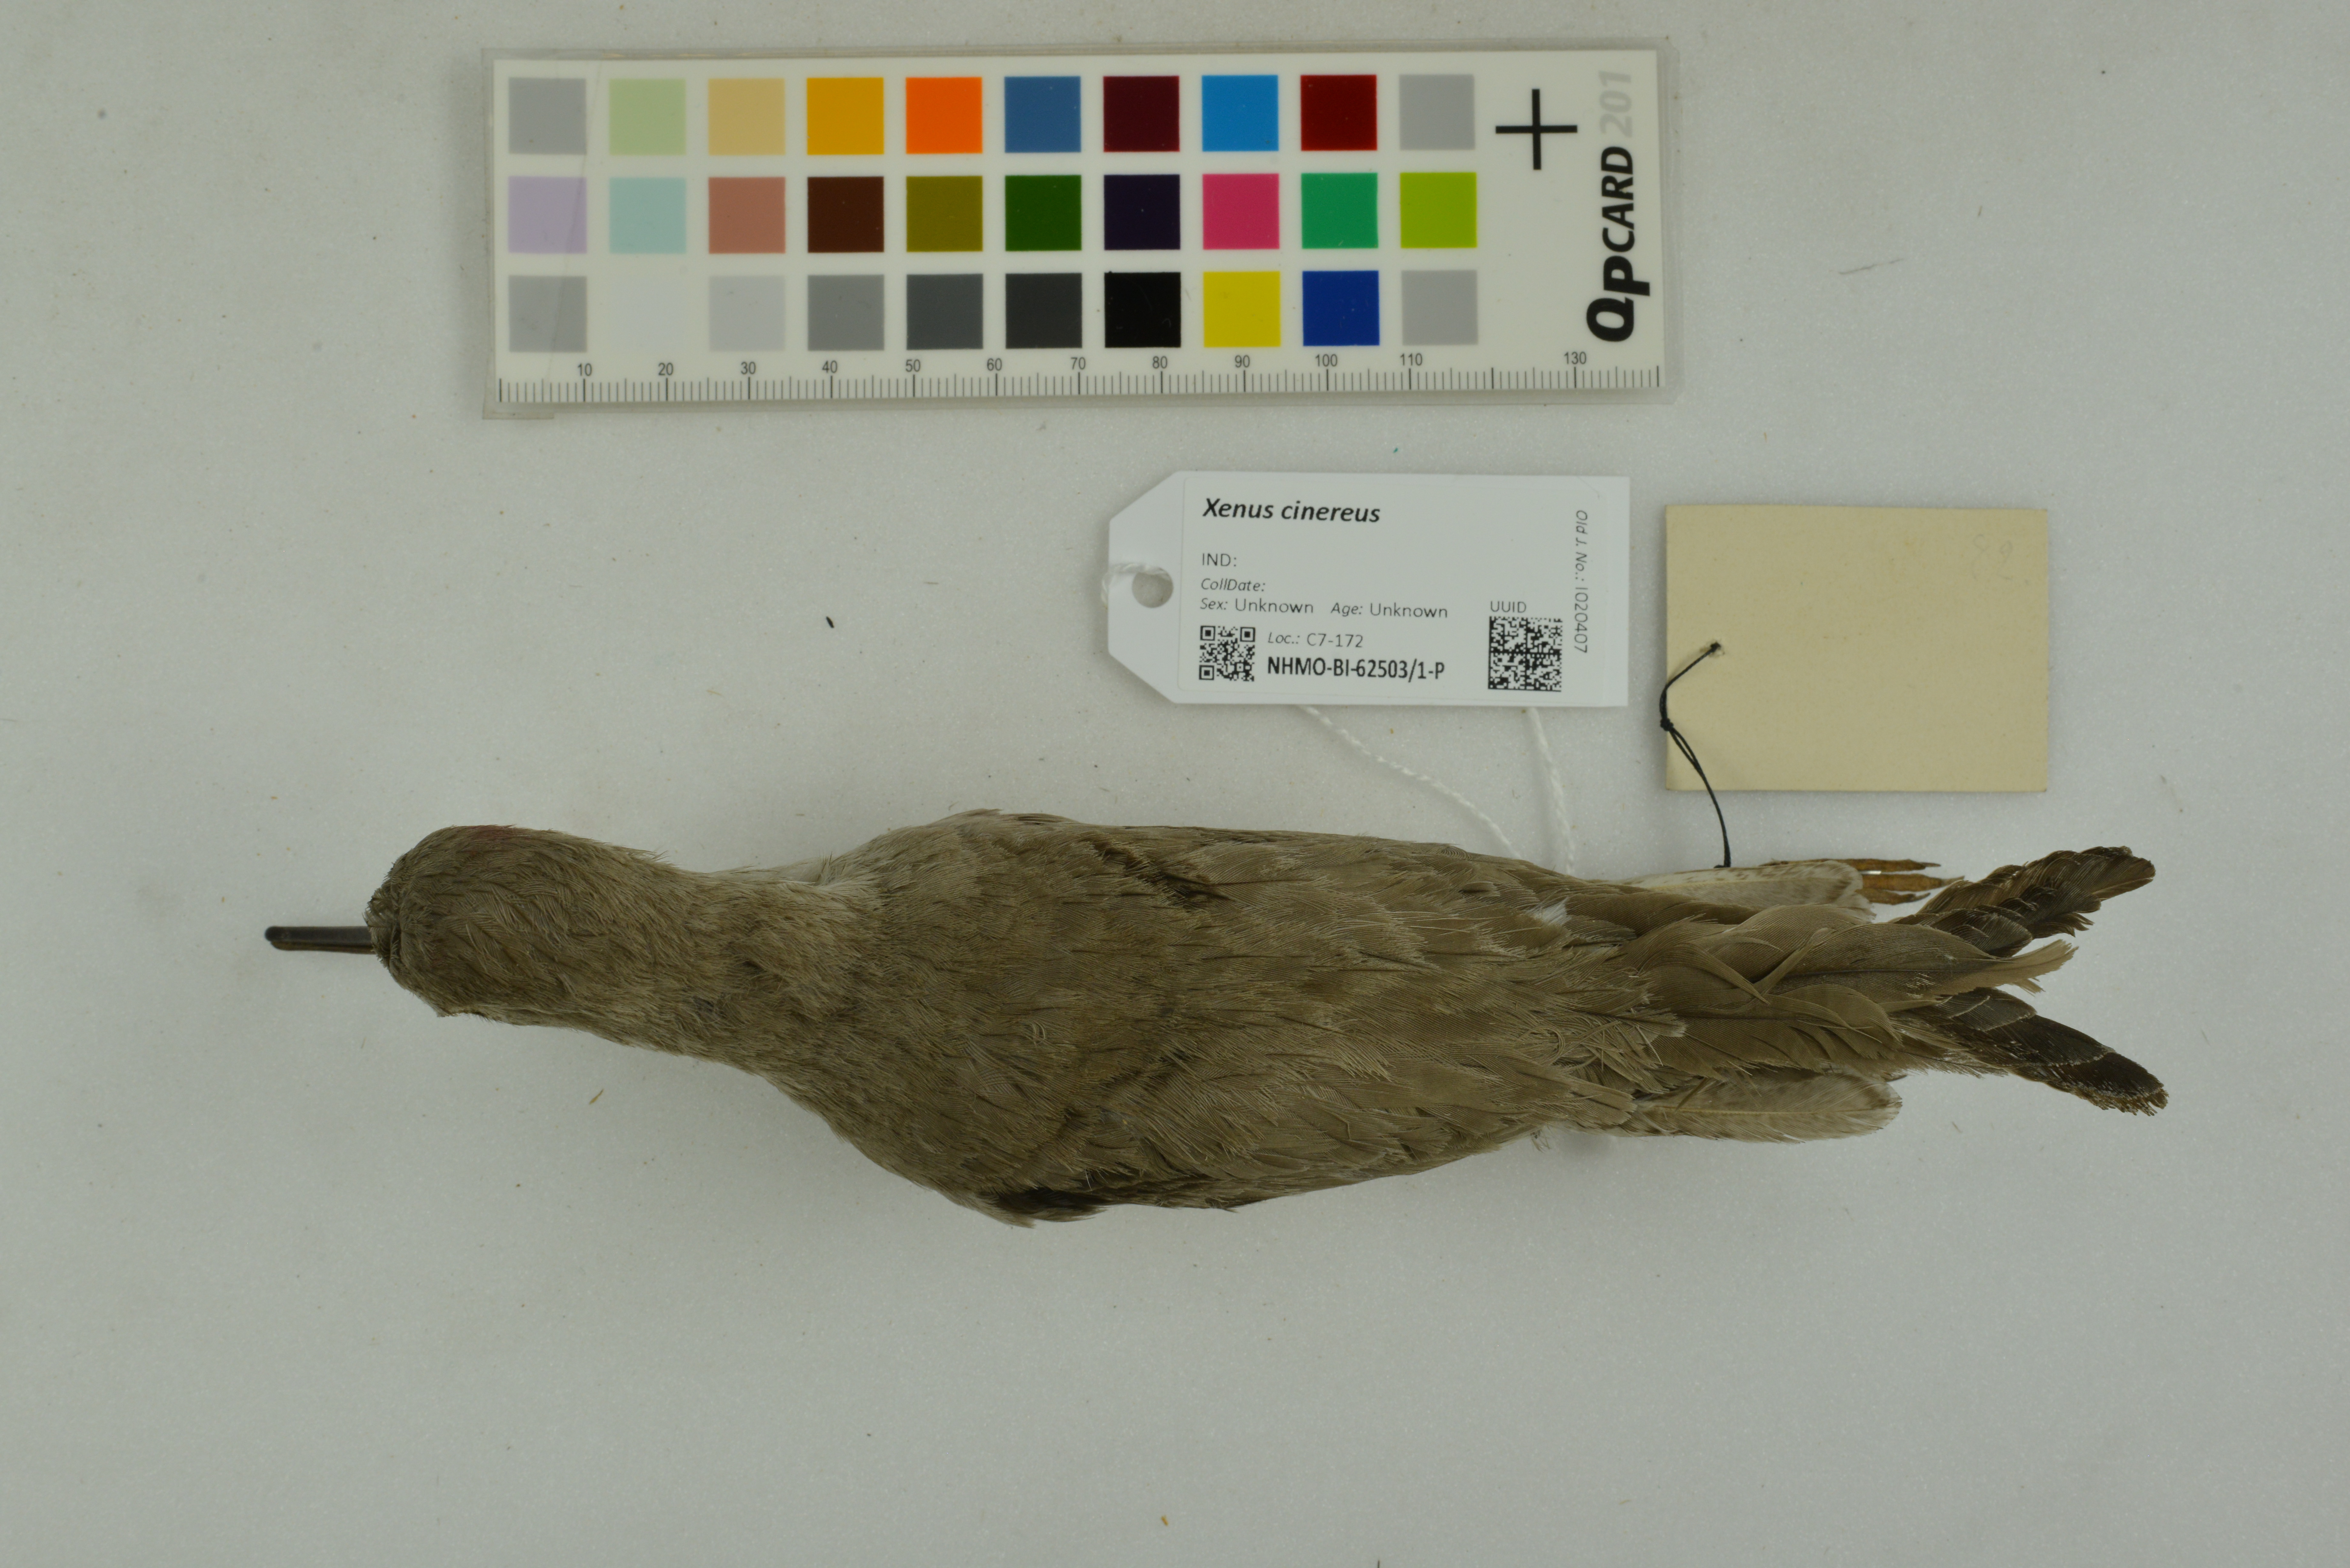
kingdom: Animalia
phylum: Chordata
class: Aves
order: Charadriiformes
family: Scolopacidae
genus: Xenus
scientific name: Xenus cinereus
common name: Terek sandpiper
